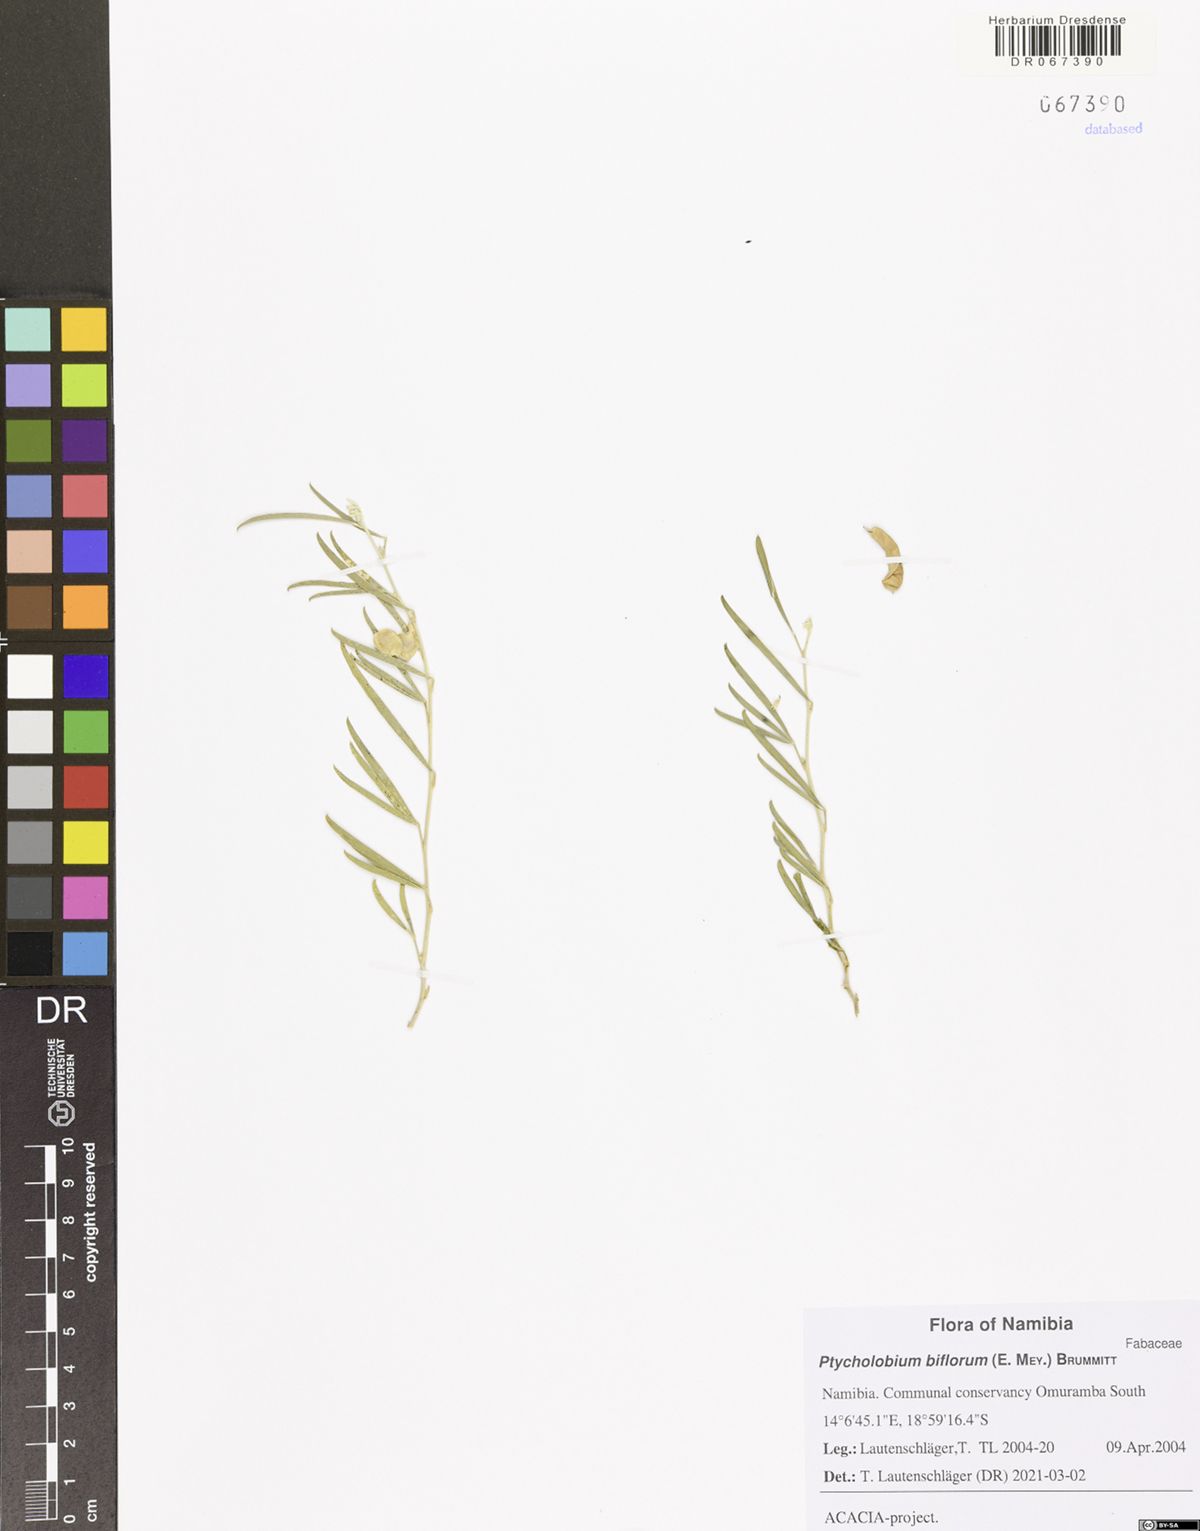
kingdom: Plantae
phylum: Tracheophyta
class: Magnoliopsida
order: Fabales
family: Fabaceae
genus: Ptycholobium
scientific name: Ptycholobium biflorum
